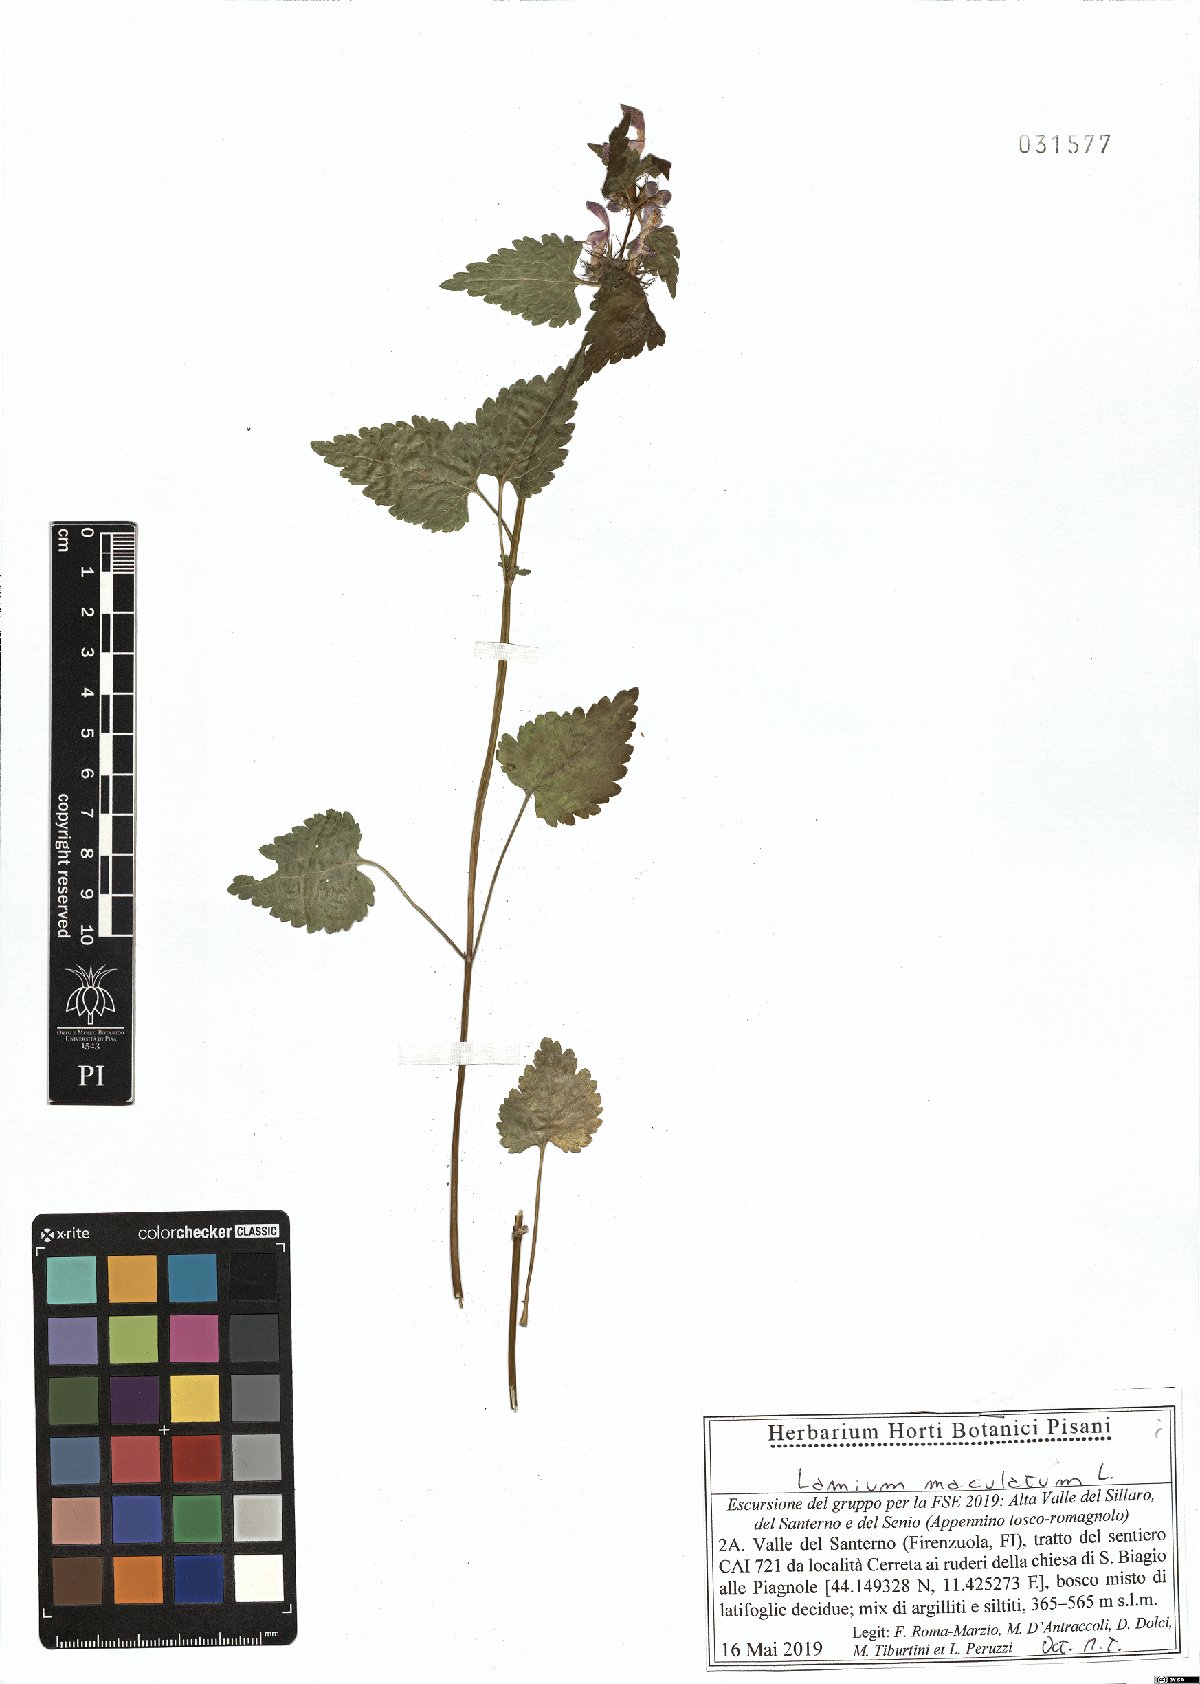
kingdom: Plantae
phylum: Tracheophyta
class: Magnoliopsida
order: Lamiales
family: Lamiaceae
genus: Lamium
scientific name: Lamium maculatum
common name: Spotted dead-nettle
